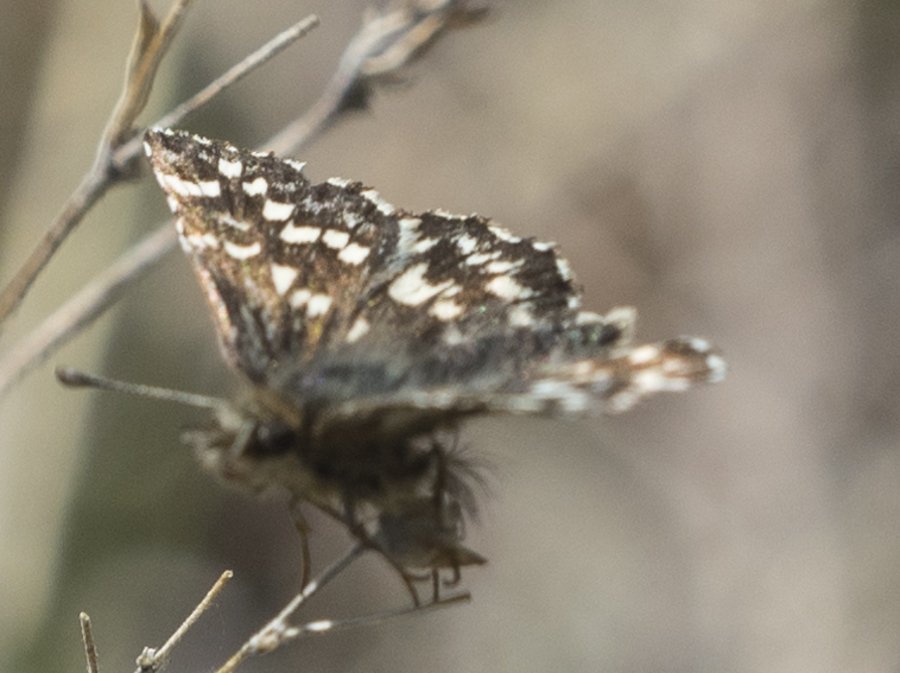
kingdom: Animalia
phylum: Arthropoda
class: Insecta
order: Lepidoptera
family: Hesperiidae
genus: Pyrgus
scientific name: Pyrgus ruralis
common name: Two-banded Checkered-Skipper
